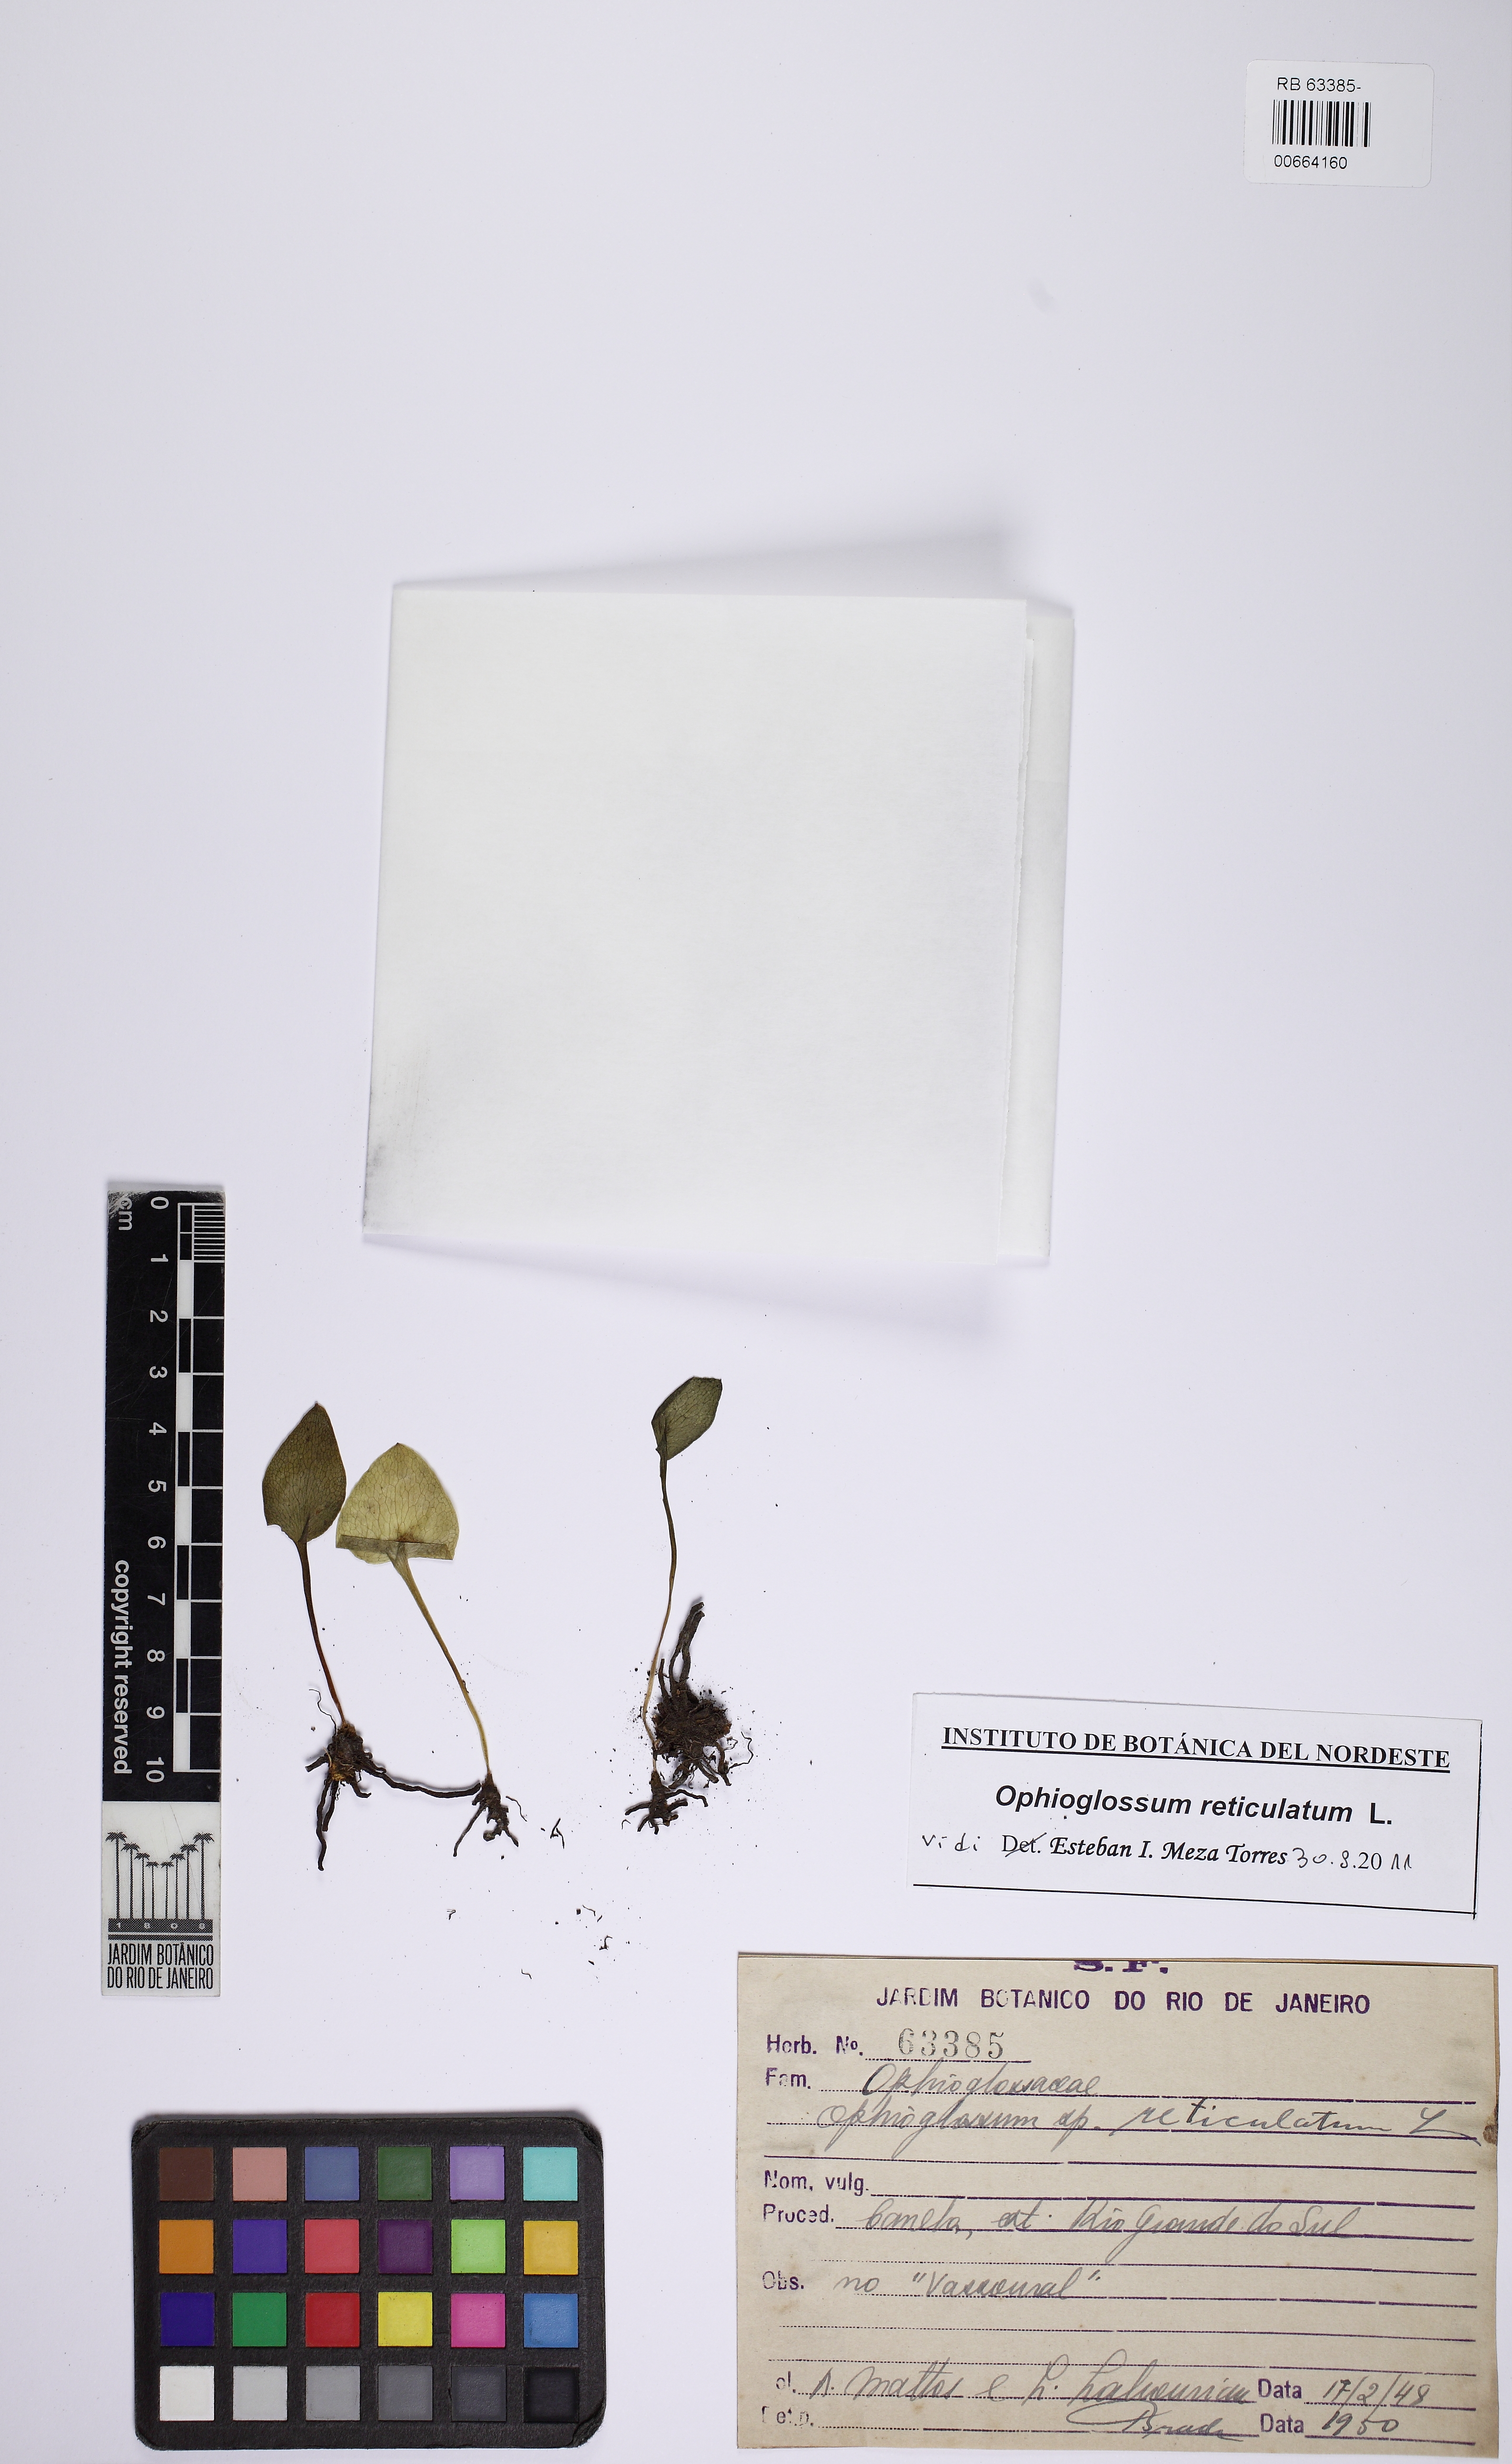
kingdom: Plantae
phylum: Tracheophyta
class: Polypodiopsida
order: Ophioglossales
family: Ophioglossaceae
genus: Ophioglossum
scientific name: Ophioglossum reticulatum
